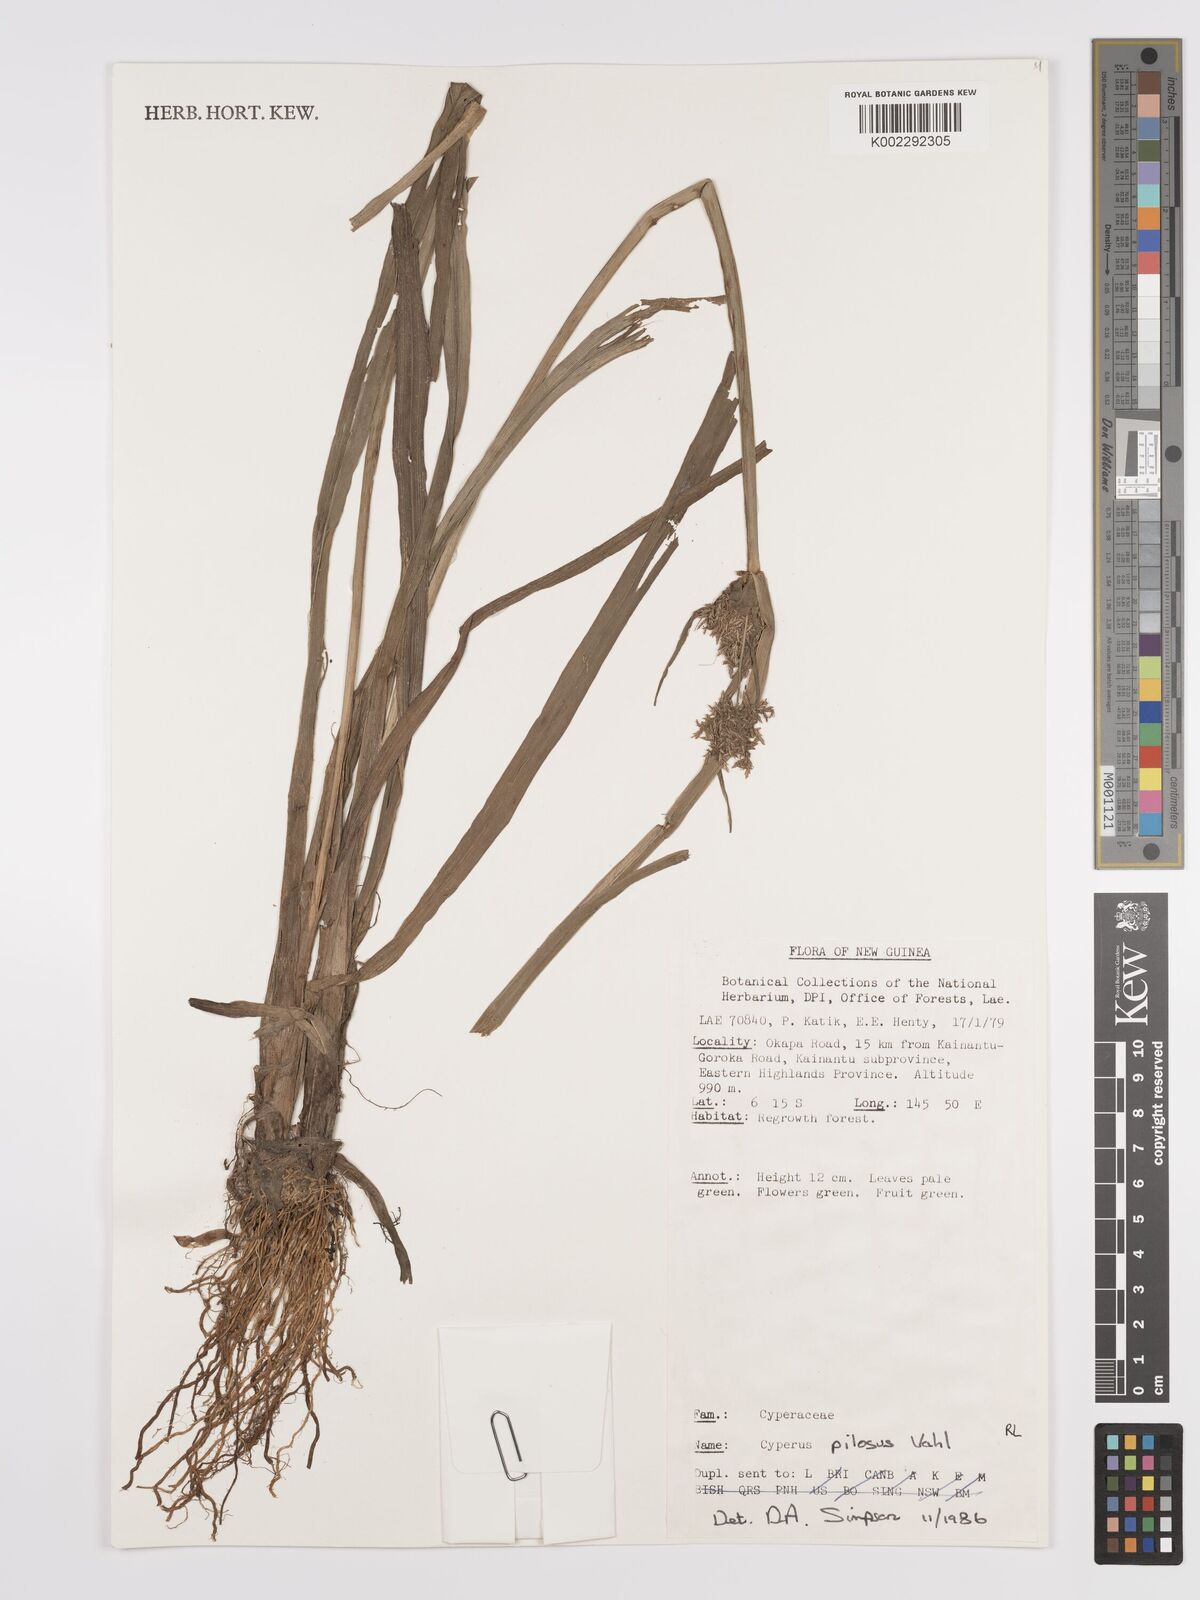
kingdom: Plantae
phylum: Tracheophyta
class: Liliopsida
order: Poales
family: Cyperaceae
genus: Cyperus
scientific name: Cyperus pilosus
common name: Fuzzy flatsedge
